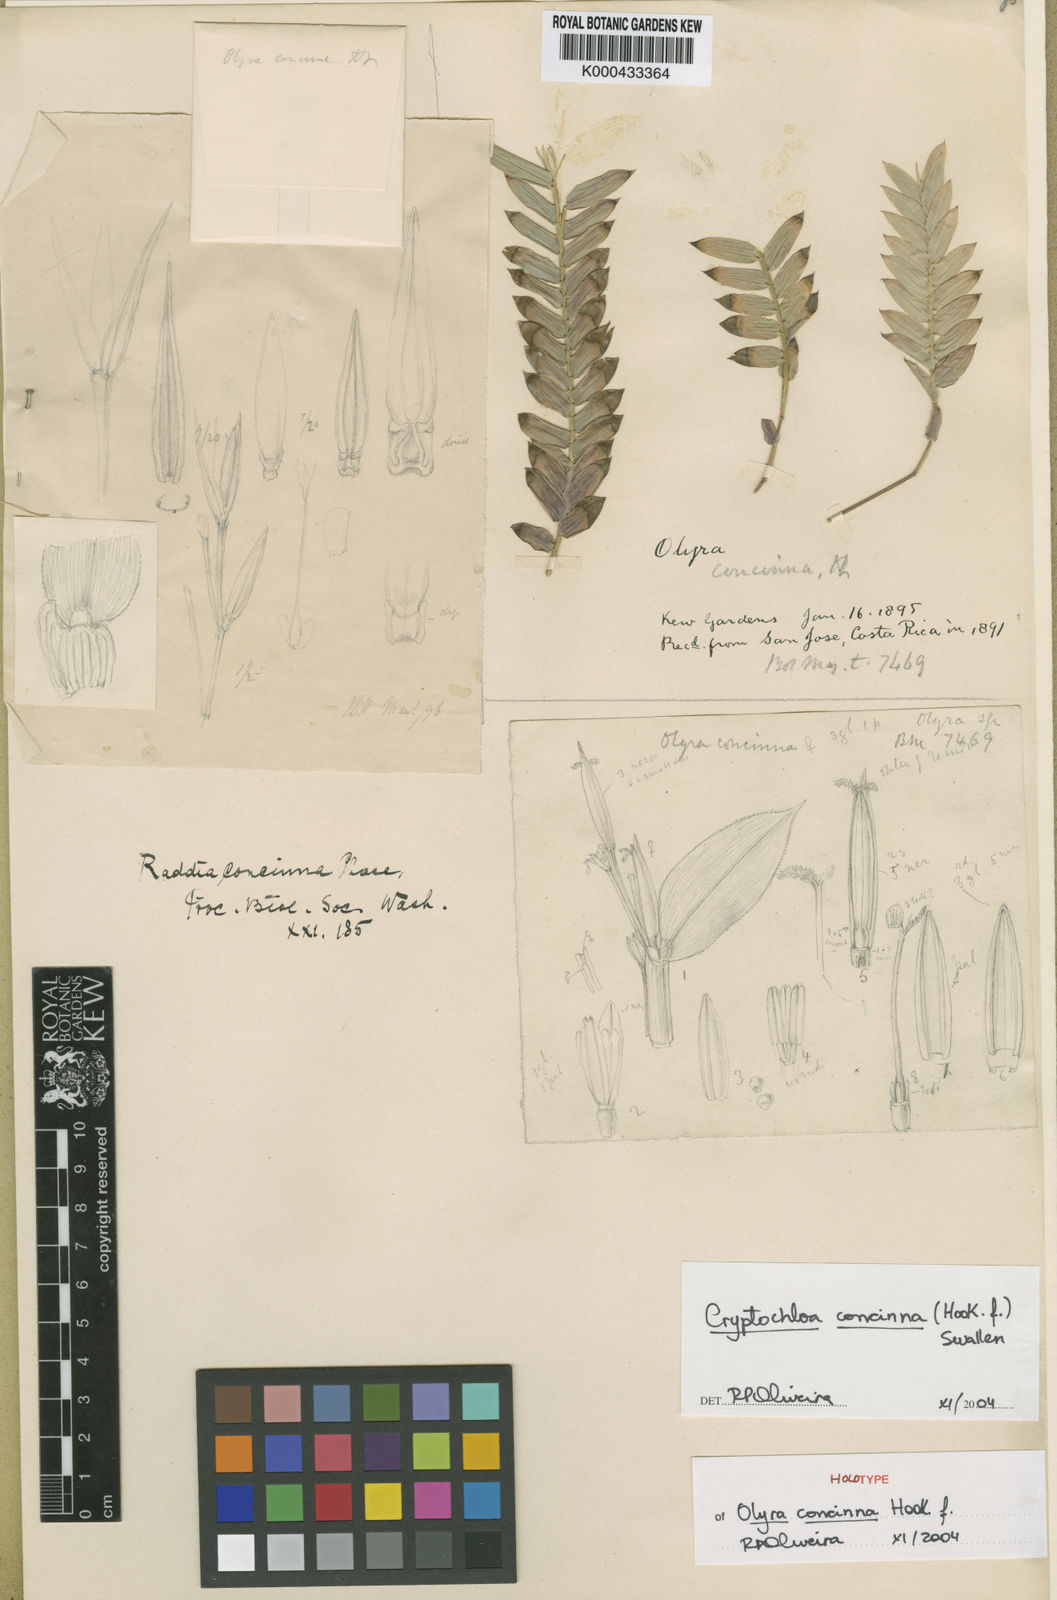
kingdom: Plantae
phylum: Tracheophyta
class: Liliopsida
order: Poales
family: Poaceae
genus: Cryptochloa
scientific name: Cryptochloa concinna
